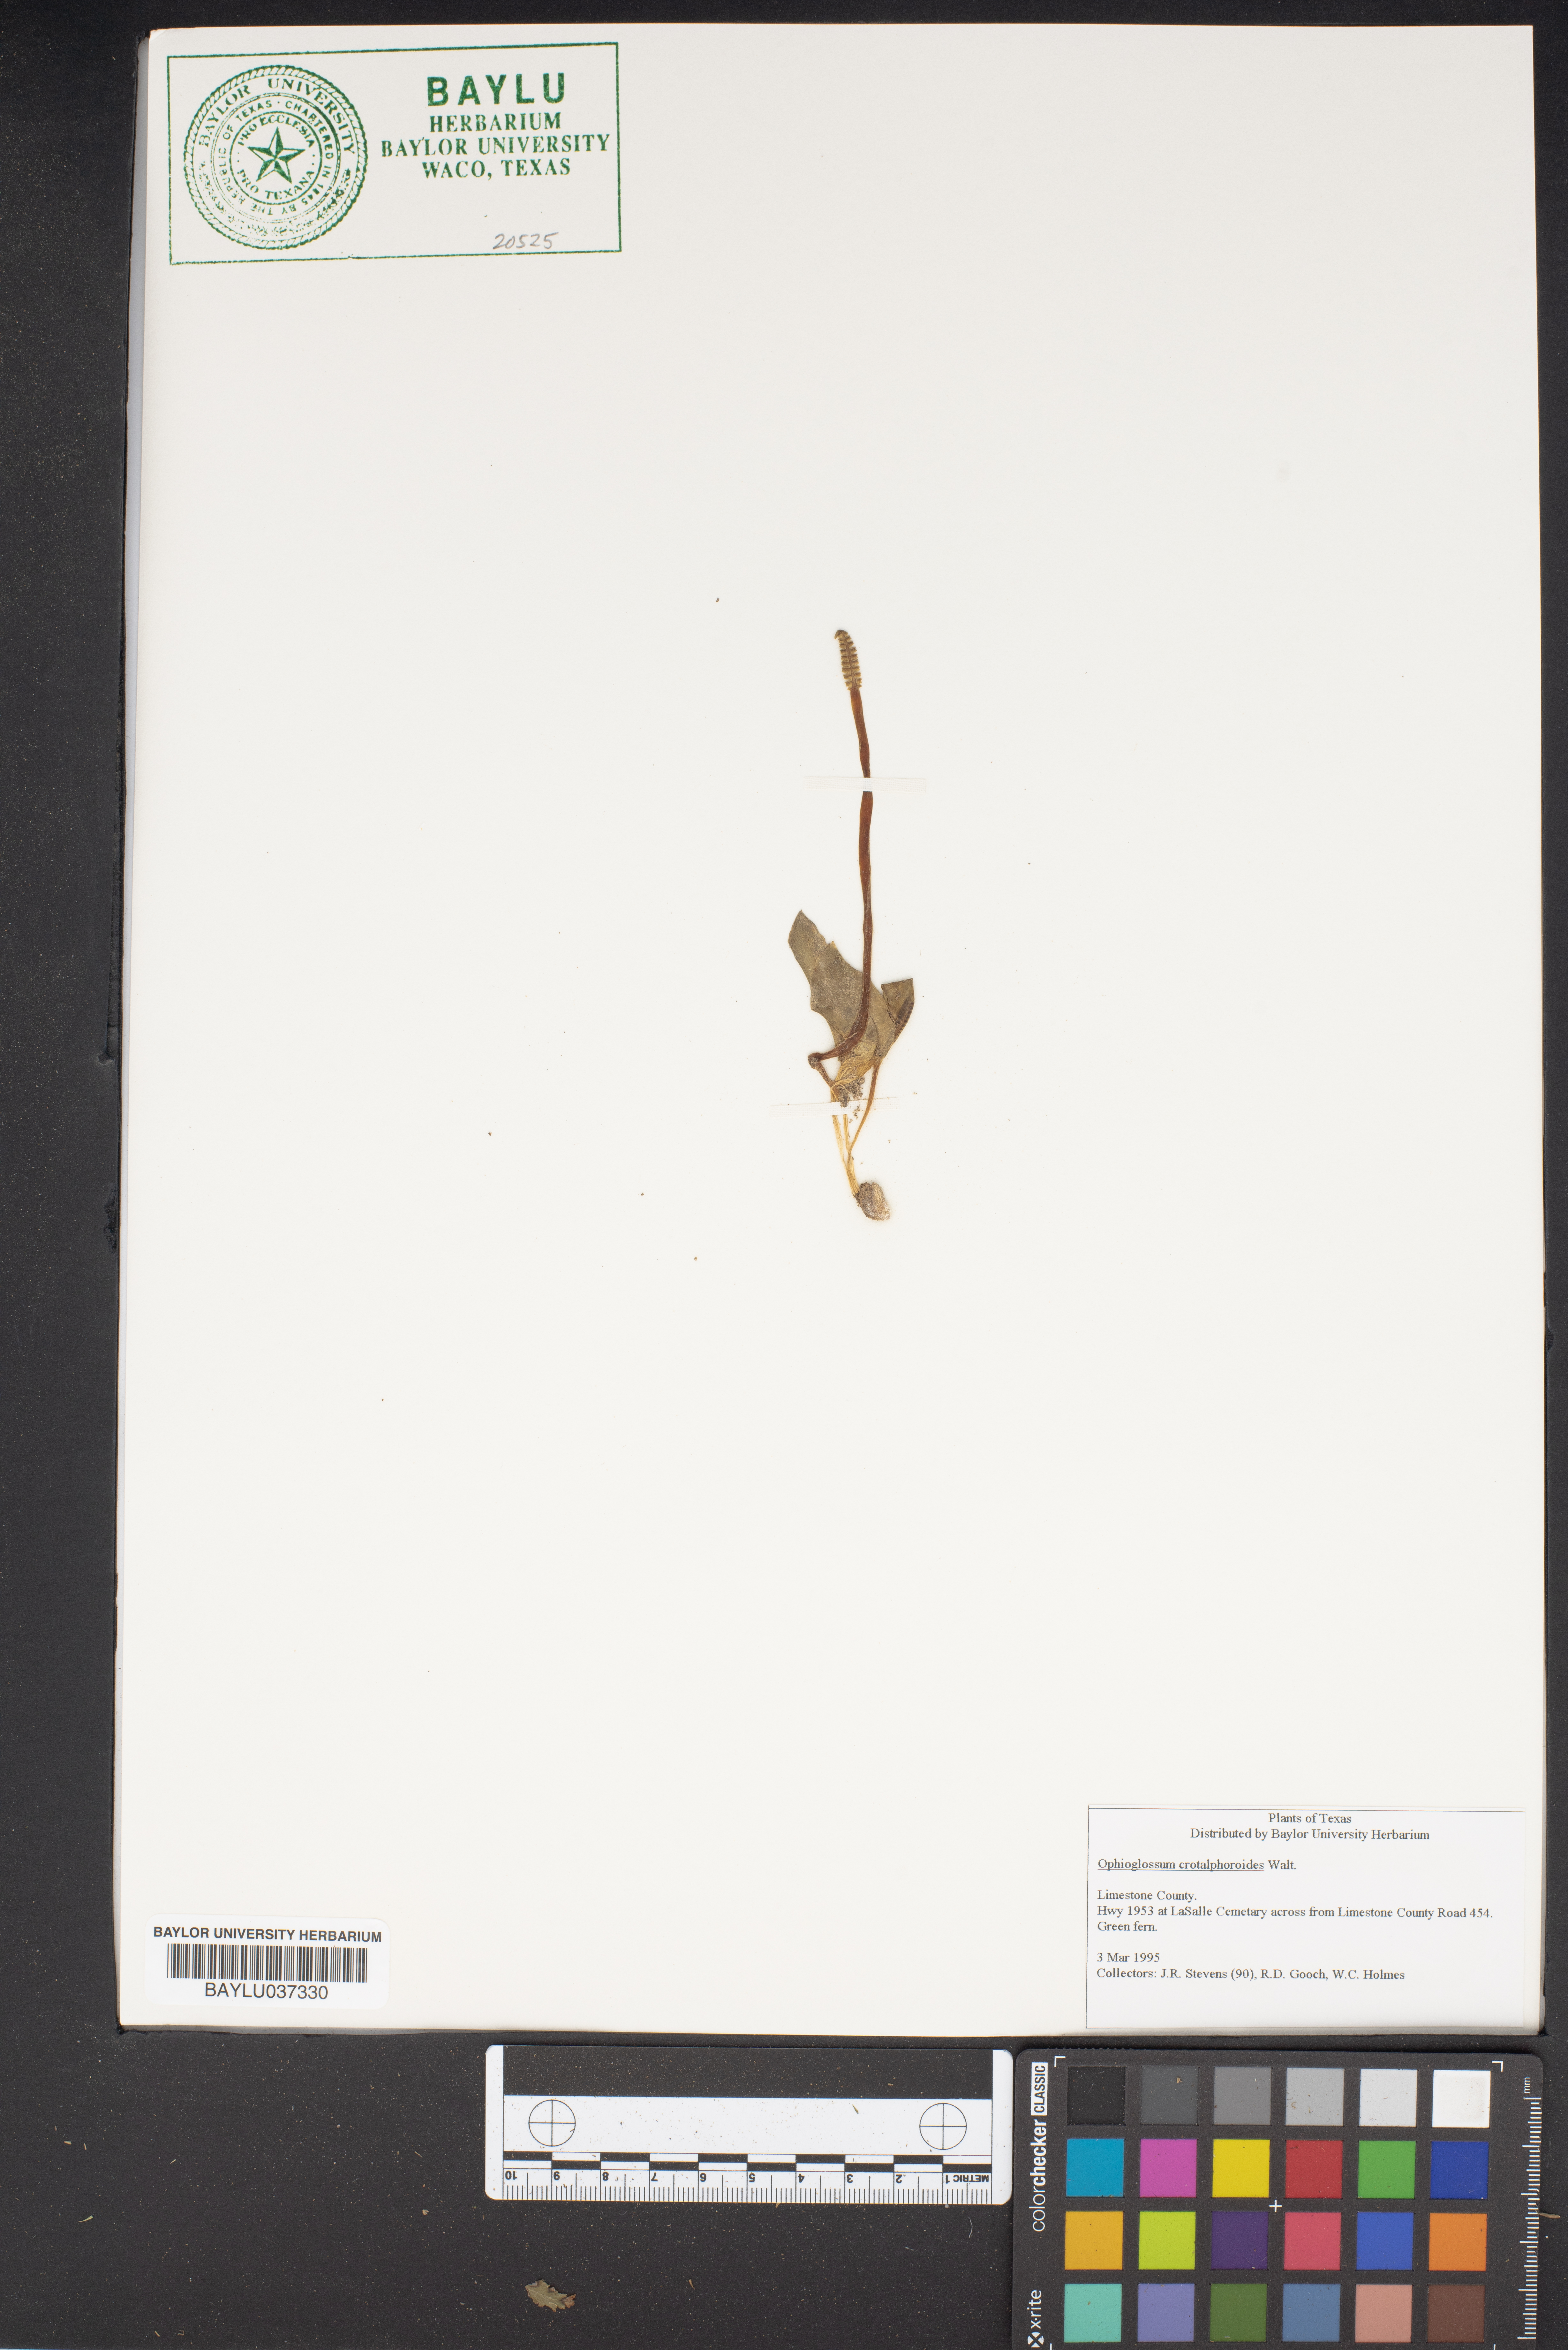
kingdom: Plantae
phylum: Tracheophyta
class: Polypodiopsida
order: Ophioglossales
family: Ophioglossaceae
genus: Ophioglossum
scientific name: Ophioglossum crotalophoroides
